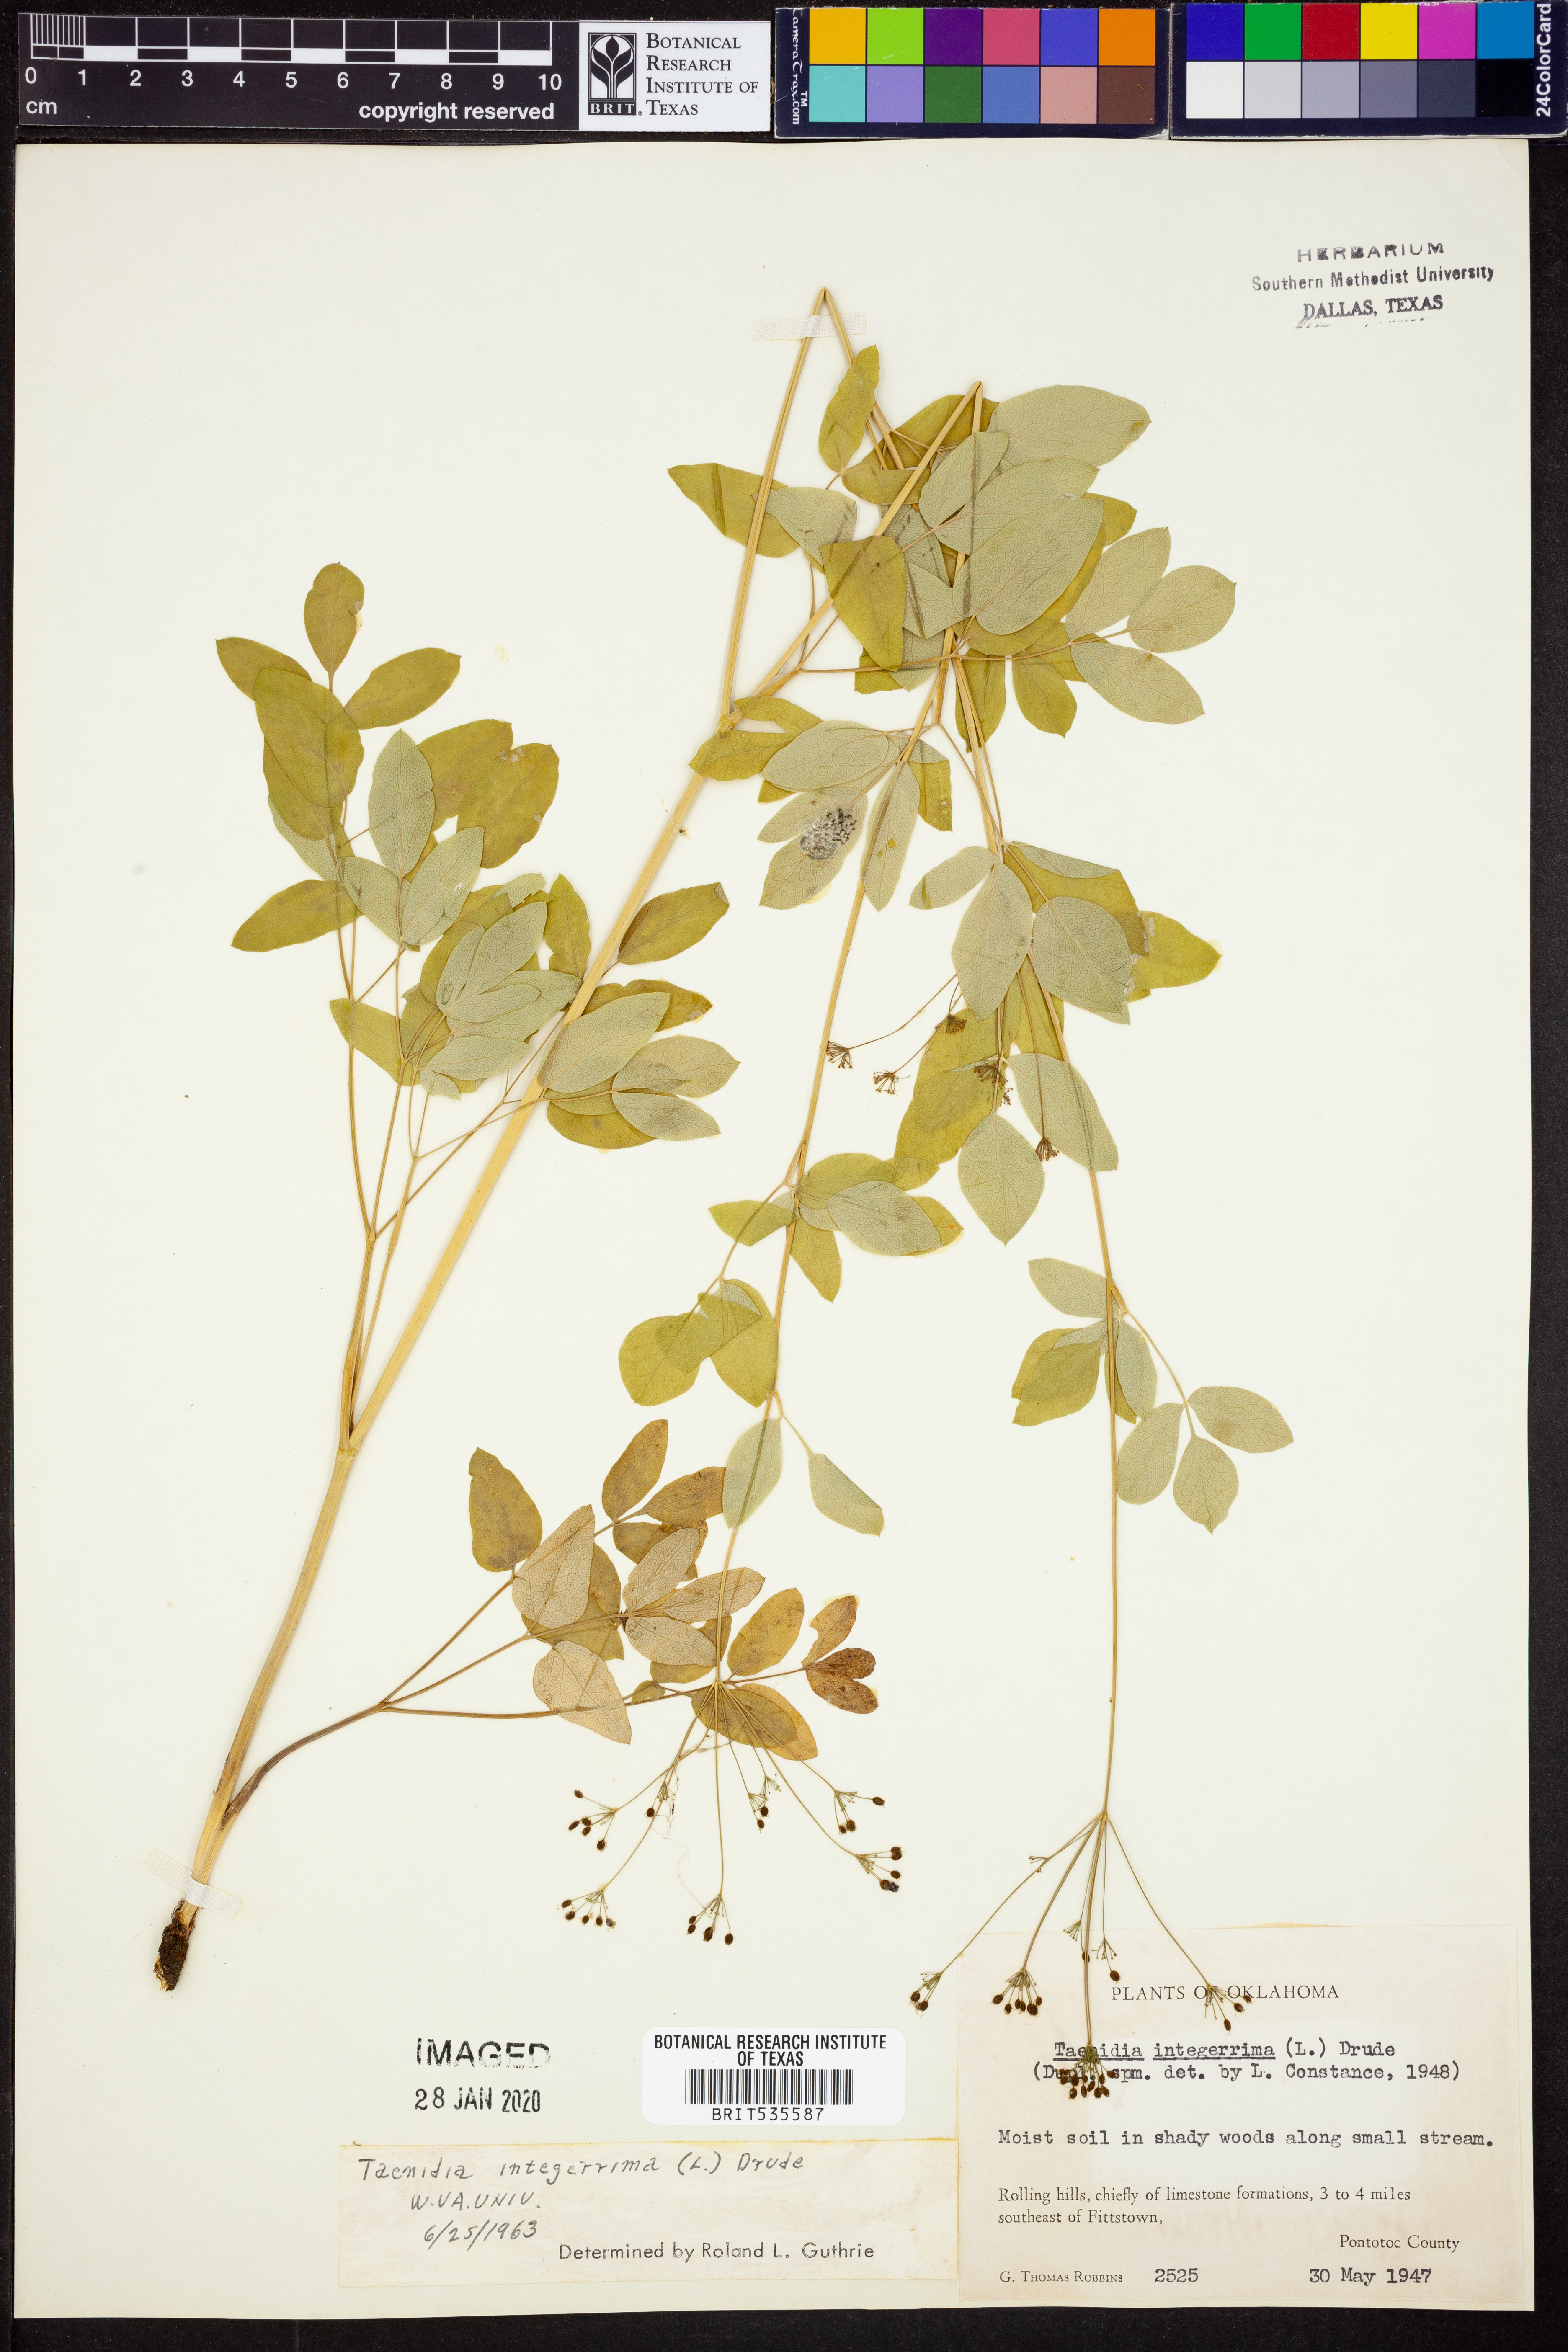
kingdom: Plantae
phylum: Tracheophyta
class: Magnoliopsida
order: Apiales
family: Apiaceae
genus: Taenidia
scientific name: Taenidia integerrima
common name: Golden alexander
